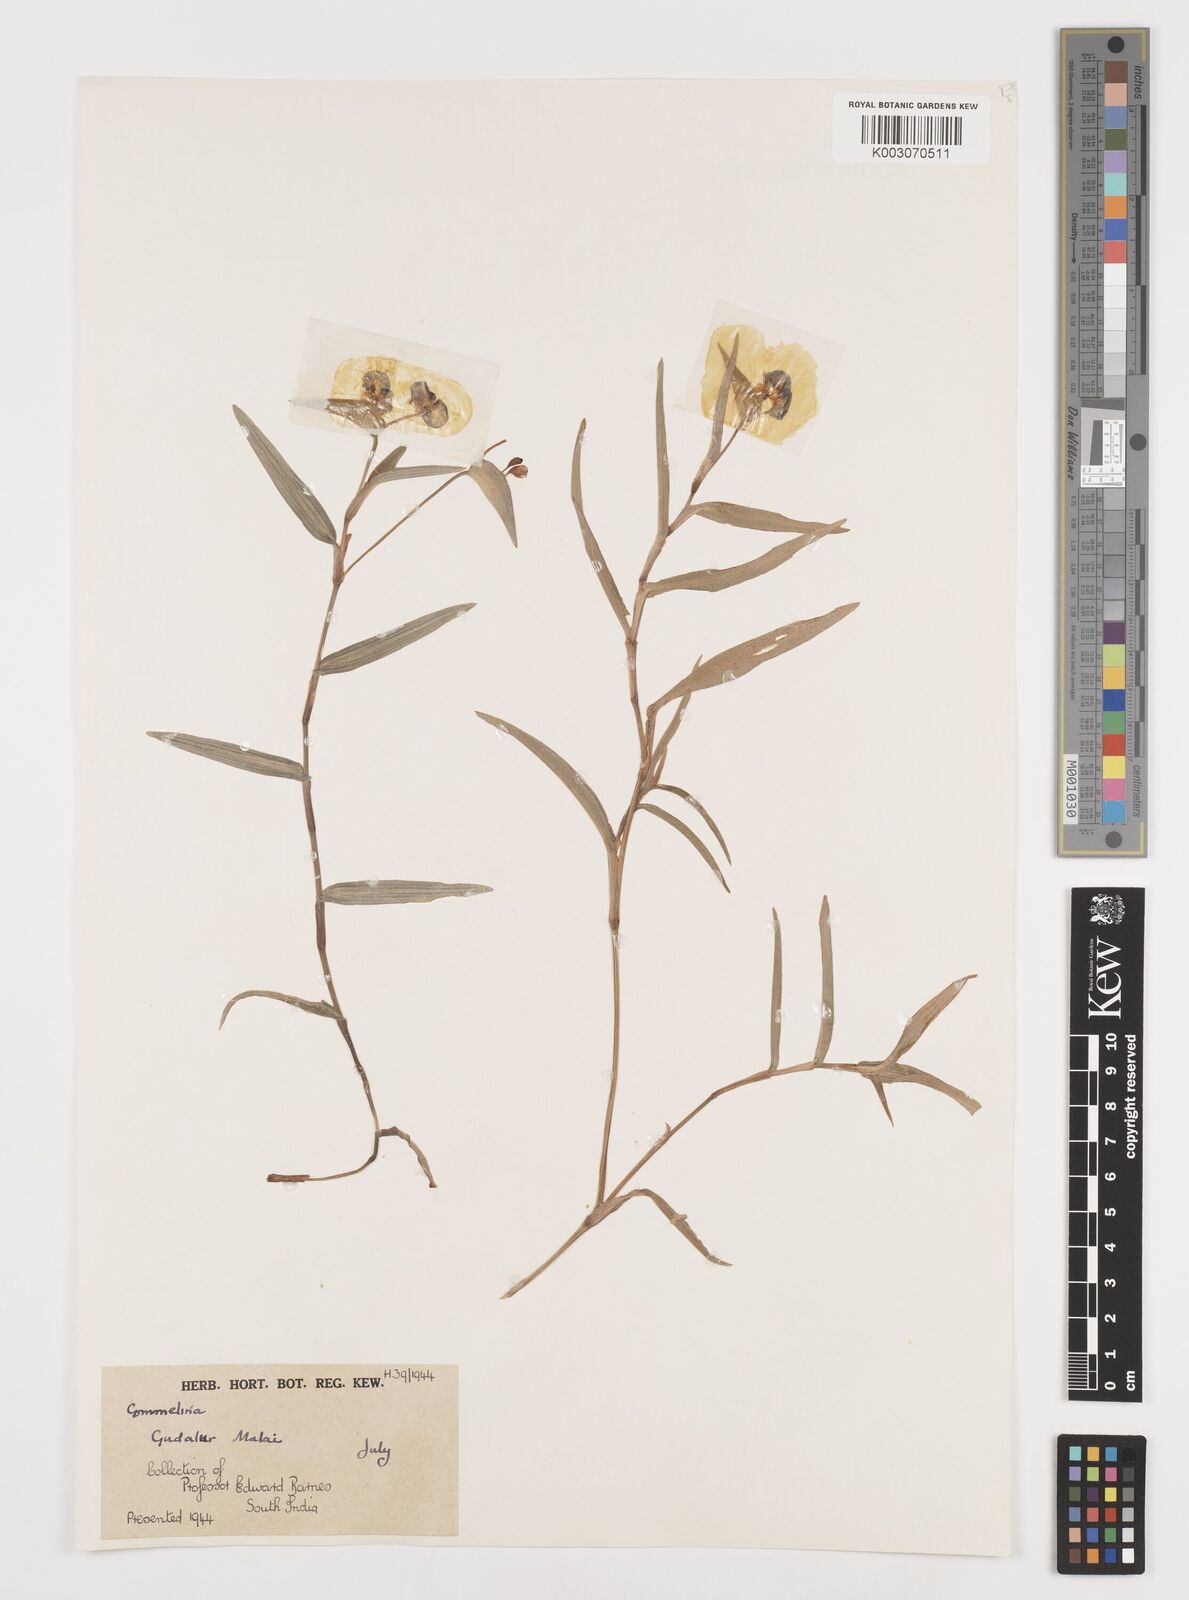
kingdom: Plantae
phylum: Tracheophyta
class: Liliopsida
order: Commelinales
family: Commelinaceae
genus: Commelina
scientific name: Commelina
